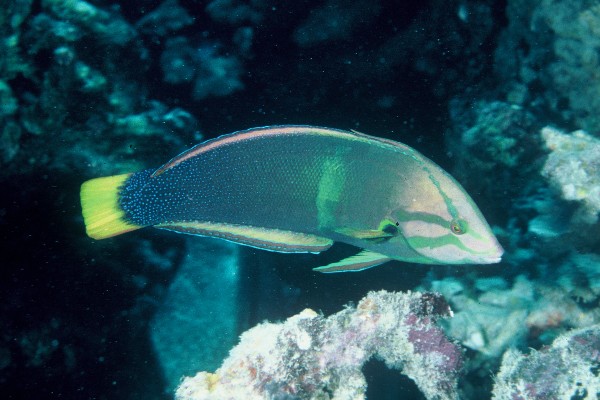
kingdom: Animalia
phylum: Chordata
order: Perciformes
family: Labridae
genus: Coris
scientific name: Coris gaimard
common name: Yellowtail coris
